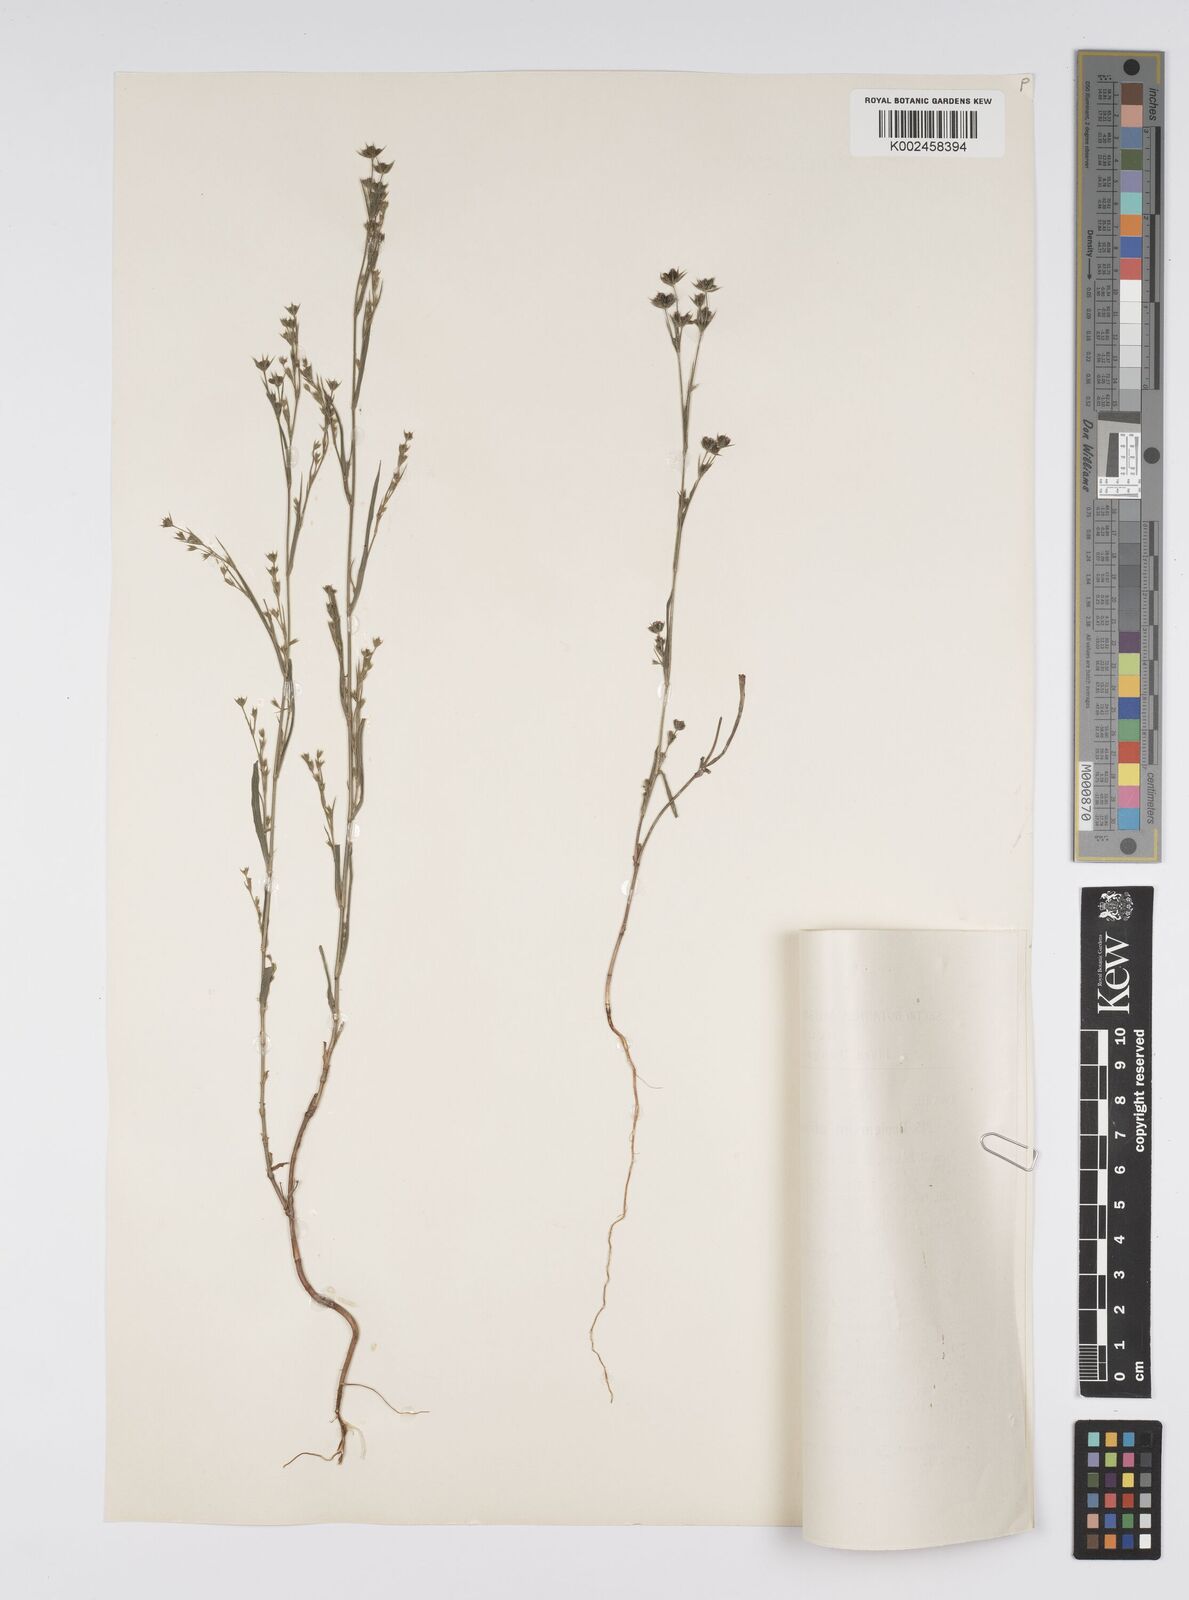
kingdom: Plantae
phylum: Tracheophyta
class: Magnoliopsida
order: Apiales
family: Apiaceae
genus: Bupleurum
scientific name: Bupleurum affine
